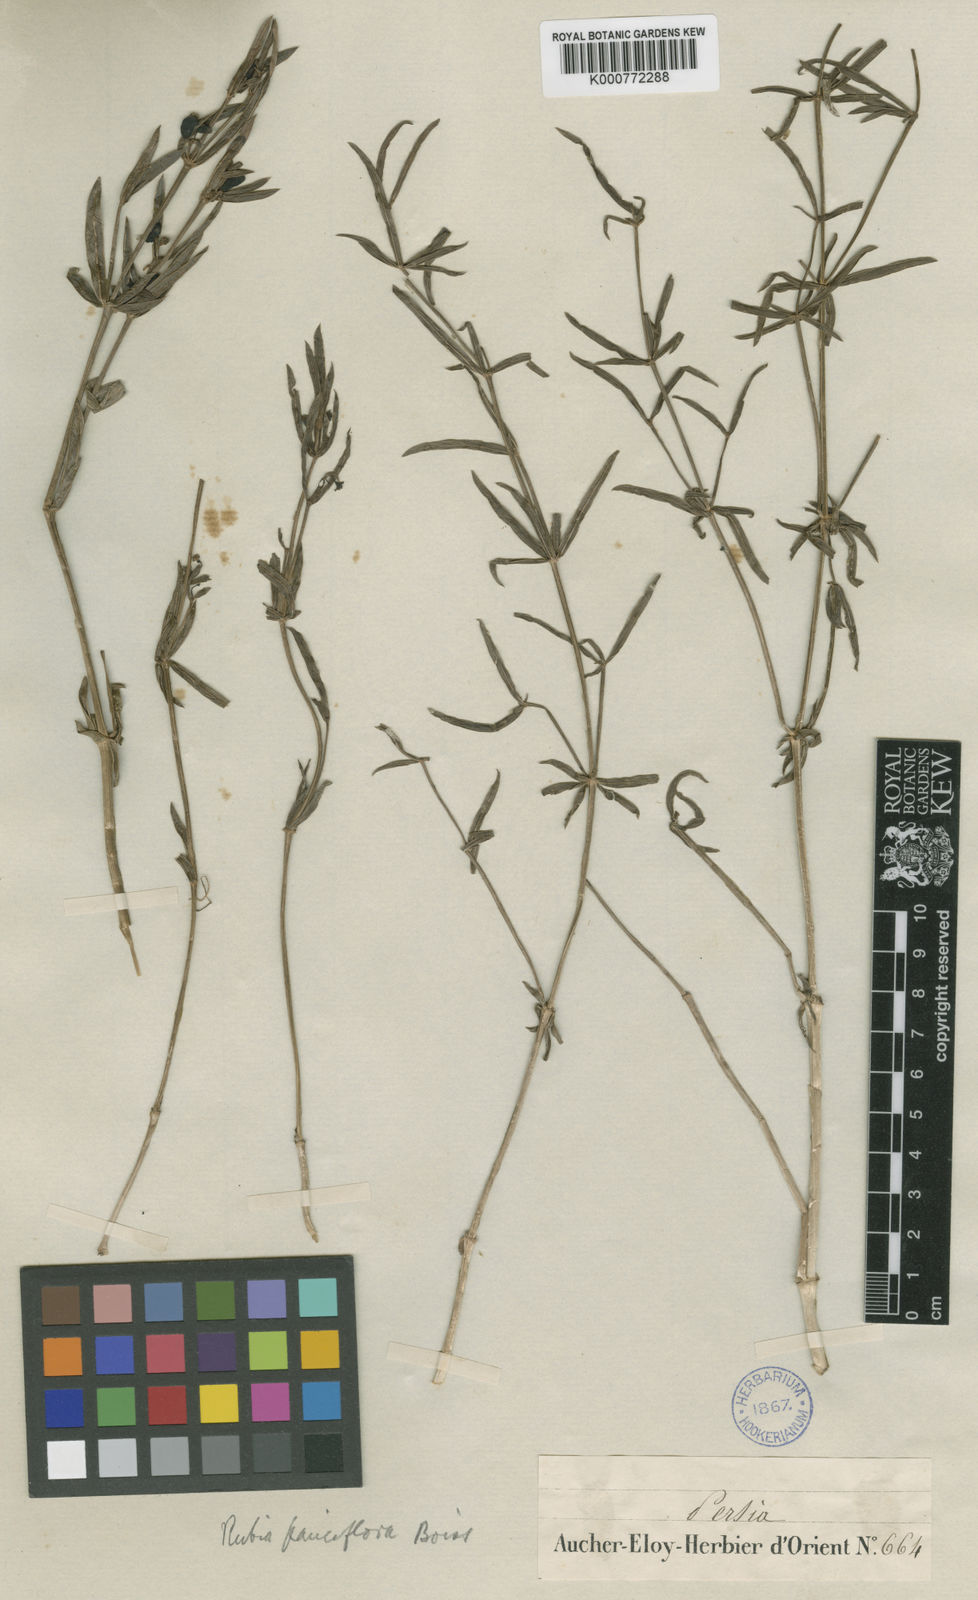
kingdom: Plantae
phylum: Tracheophyta
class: Magnoliopsida
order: Gentianales
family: Rubiaceae
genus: Rubia
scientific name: Rubia pauciflora
